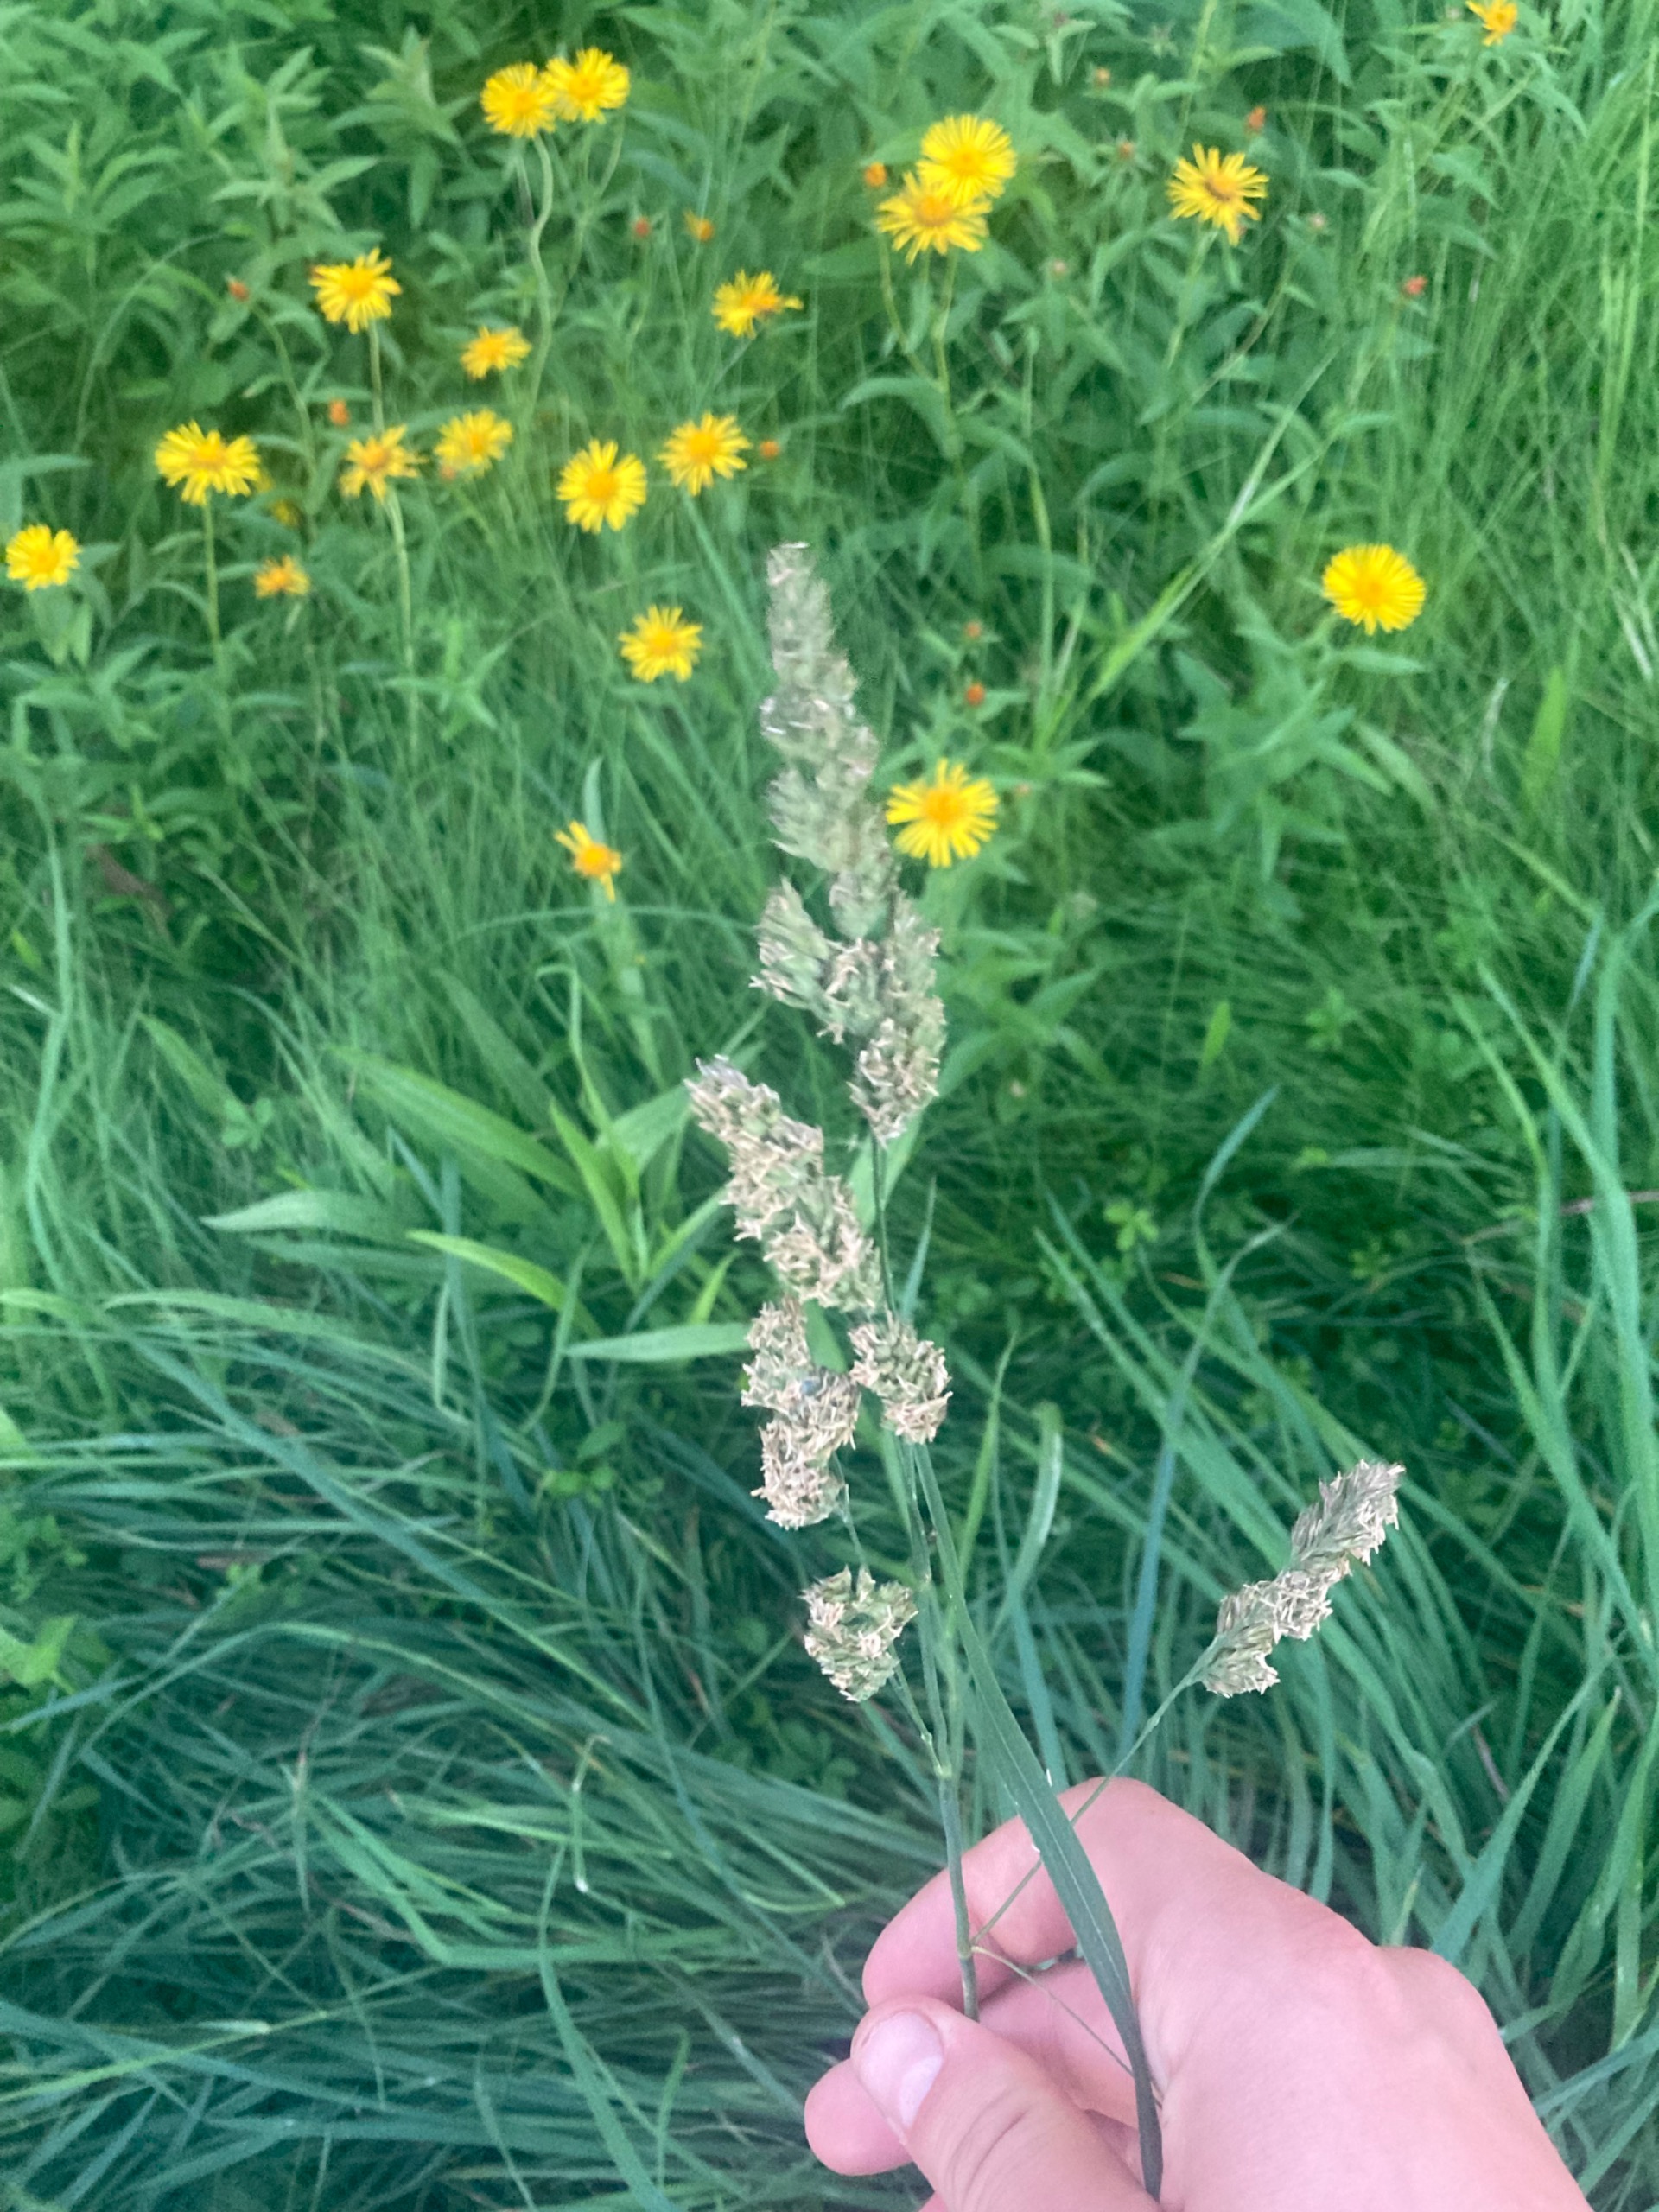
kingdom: Plantae
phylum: Tracheophyta
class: Liliopsida
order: Poales
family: Poaceae
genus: Dactylis
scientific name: Dactylis glomerata
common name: Almindelig hundegræs
